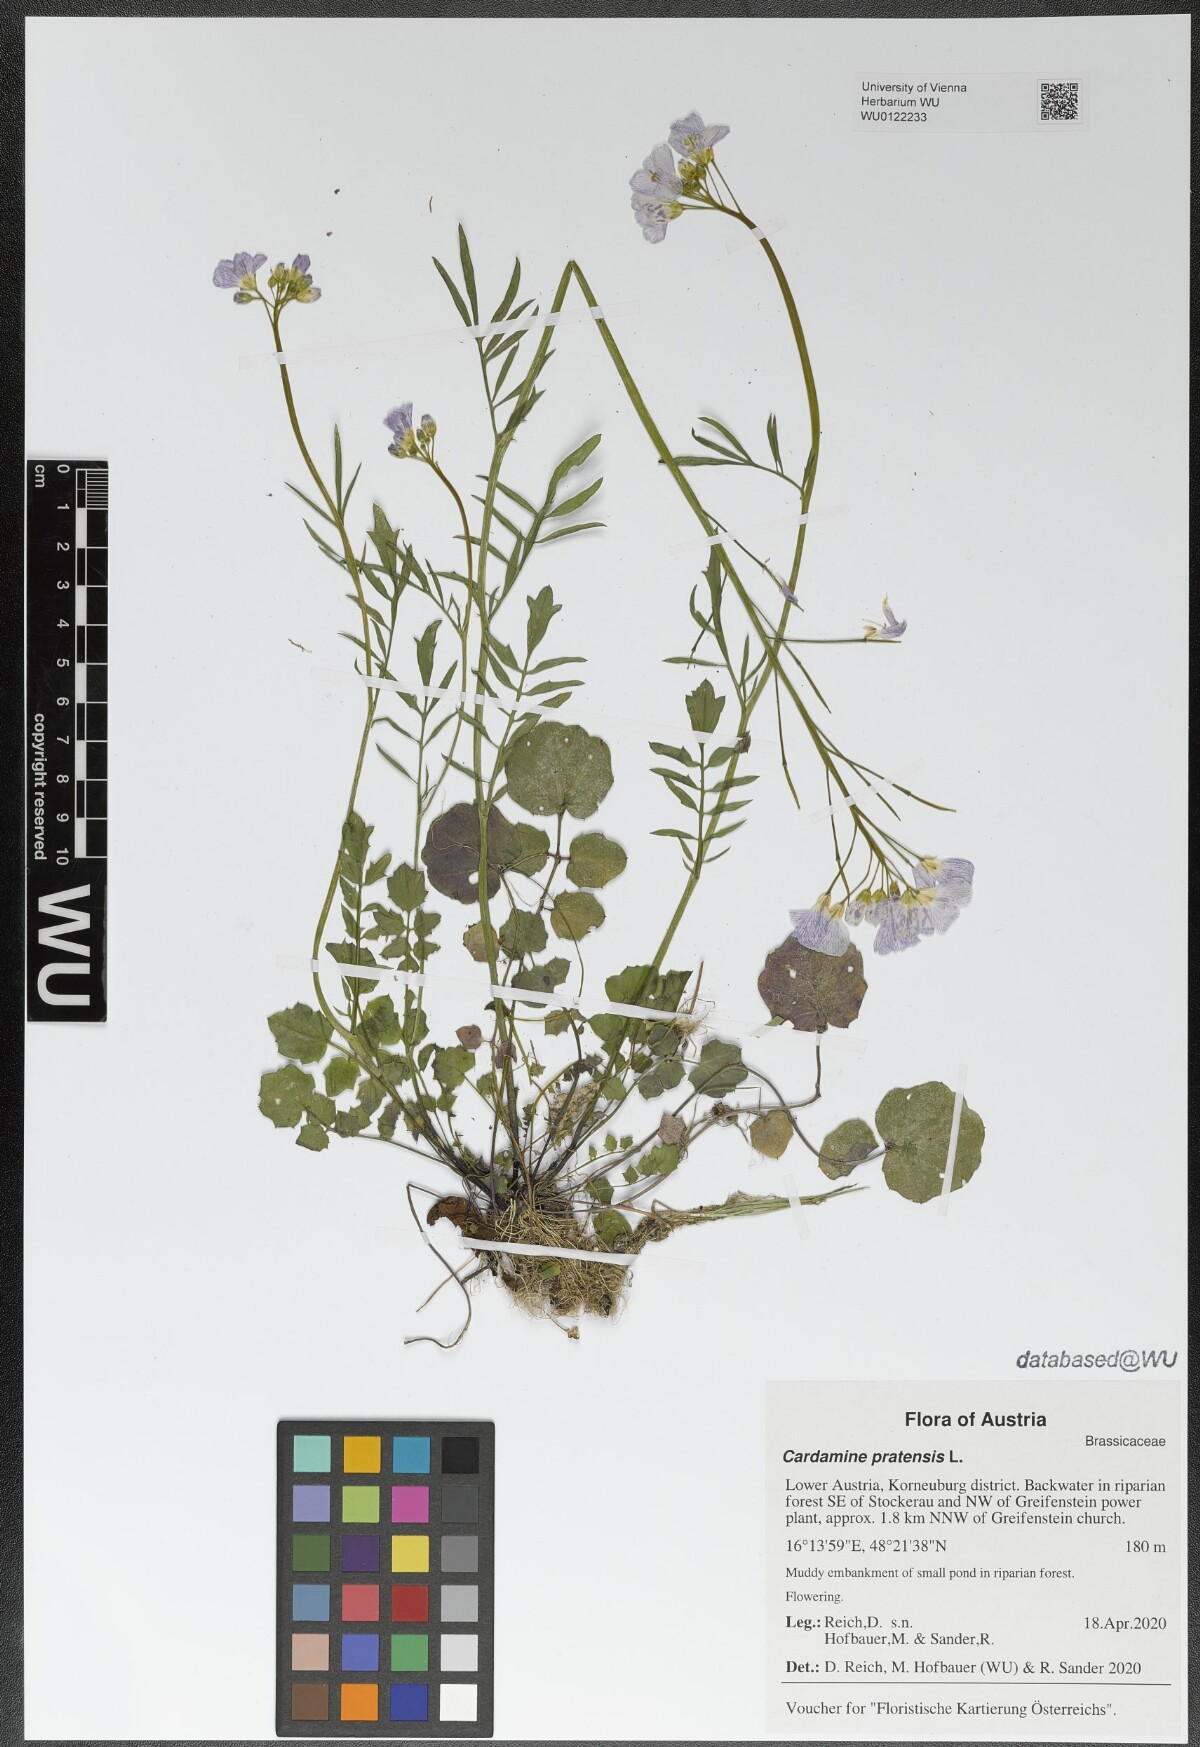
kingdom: Plantae
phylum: Tracheophyta
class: Magnoliopsida
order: Brassicales
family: Brassicaceae
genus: Cardamine
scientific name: Cardamine pratensis
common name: Cuckoo flower
